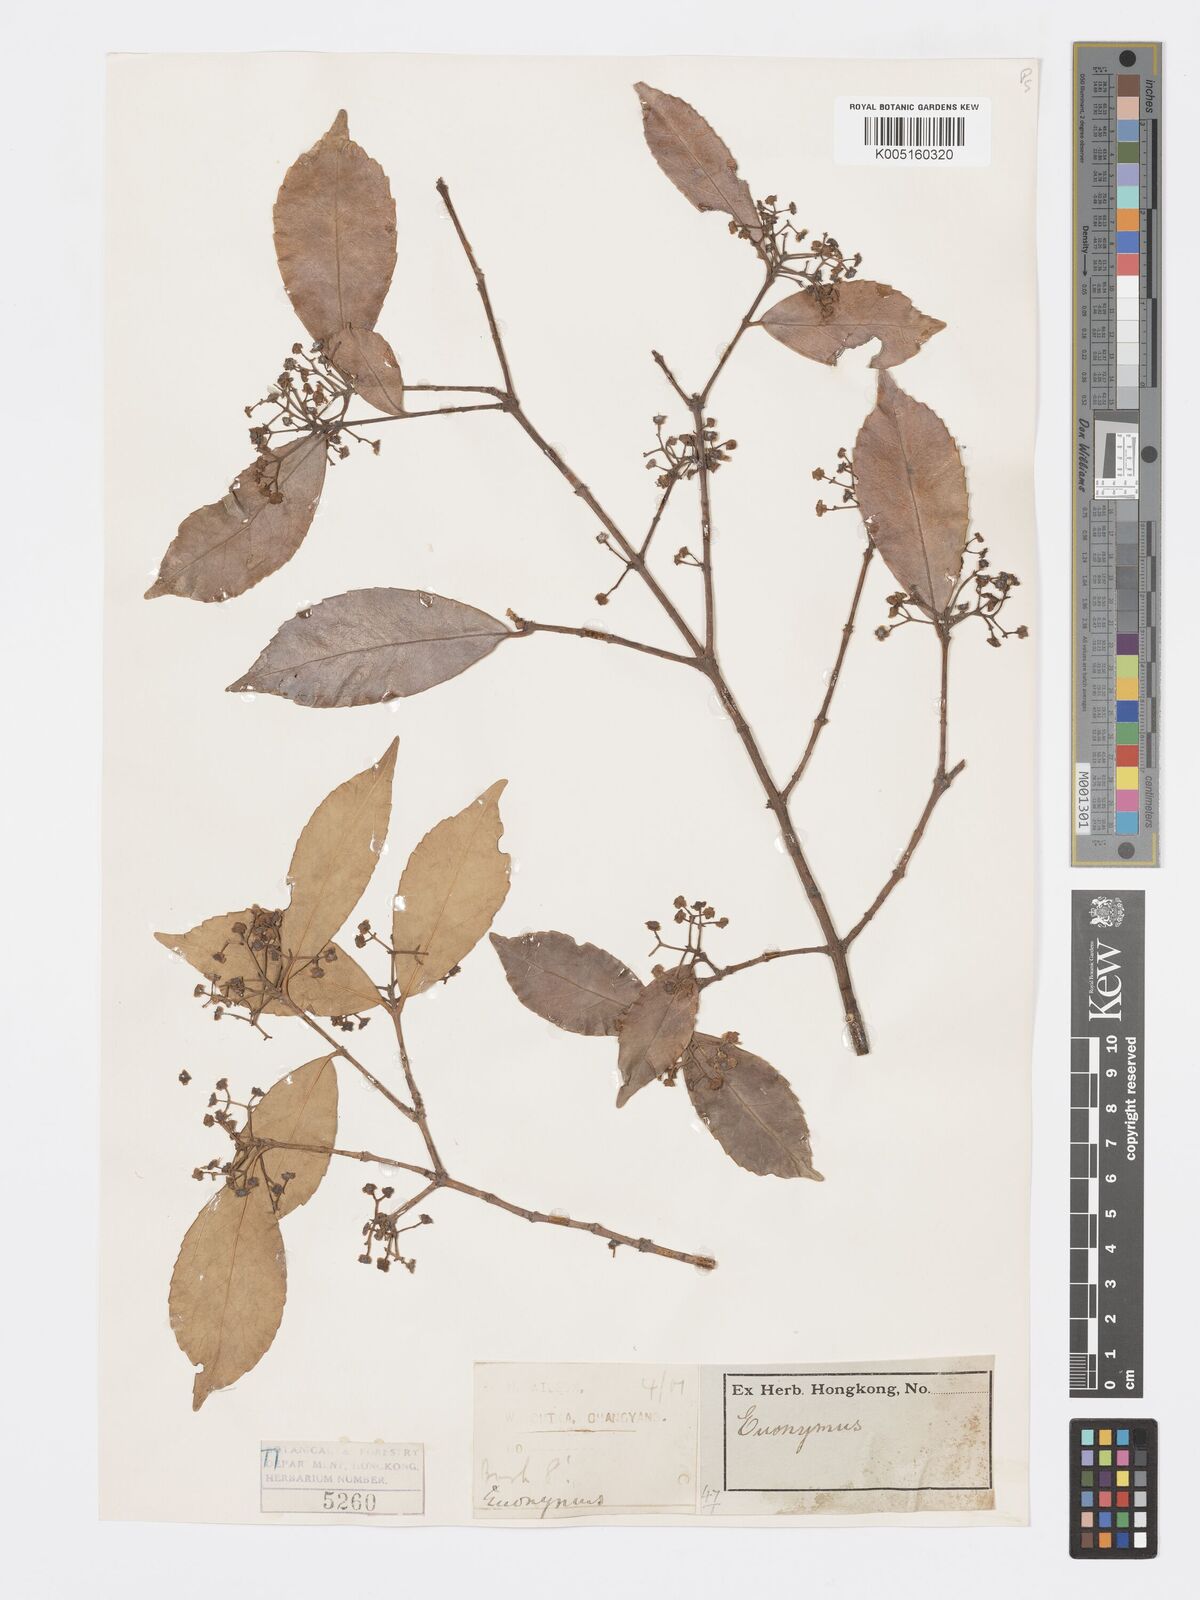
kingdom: Plantae
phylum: Tracheophyta
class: Magnoliopsida
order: Celastrales
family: Celastraceae
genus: Euonymus
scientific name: Euonymus
